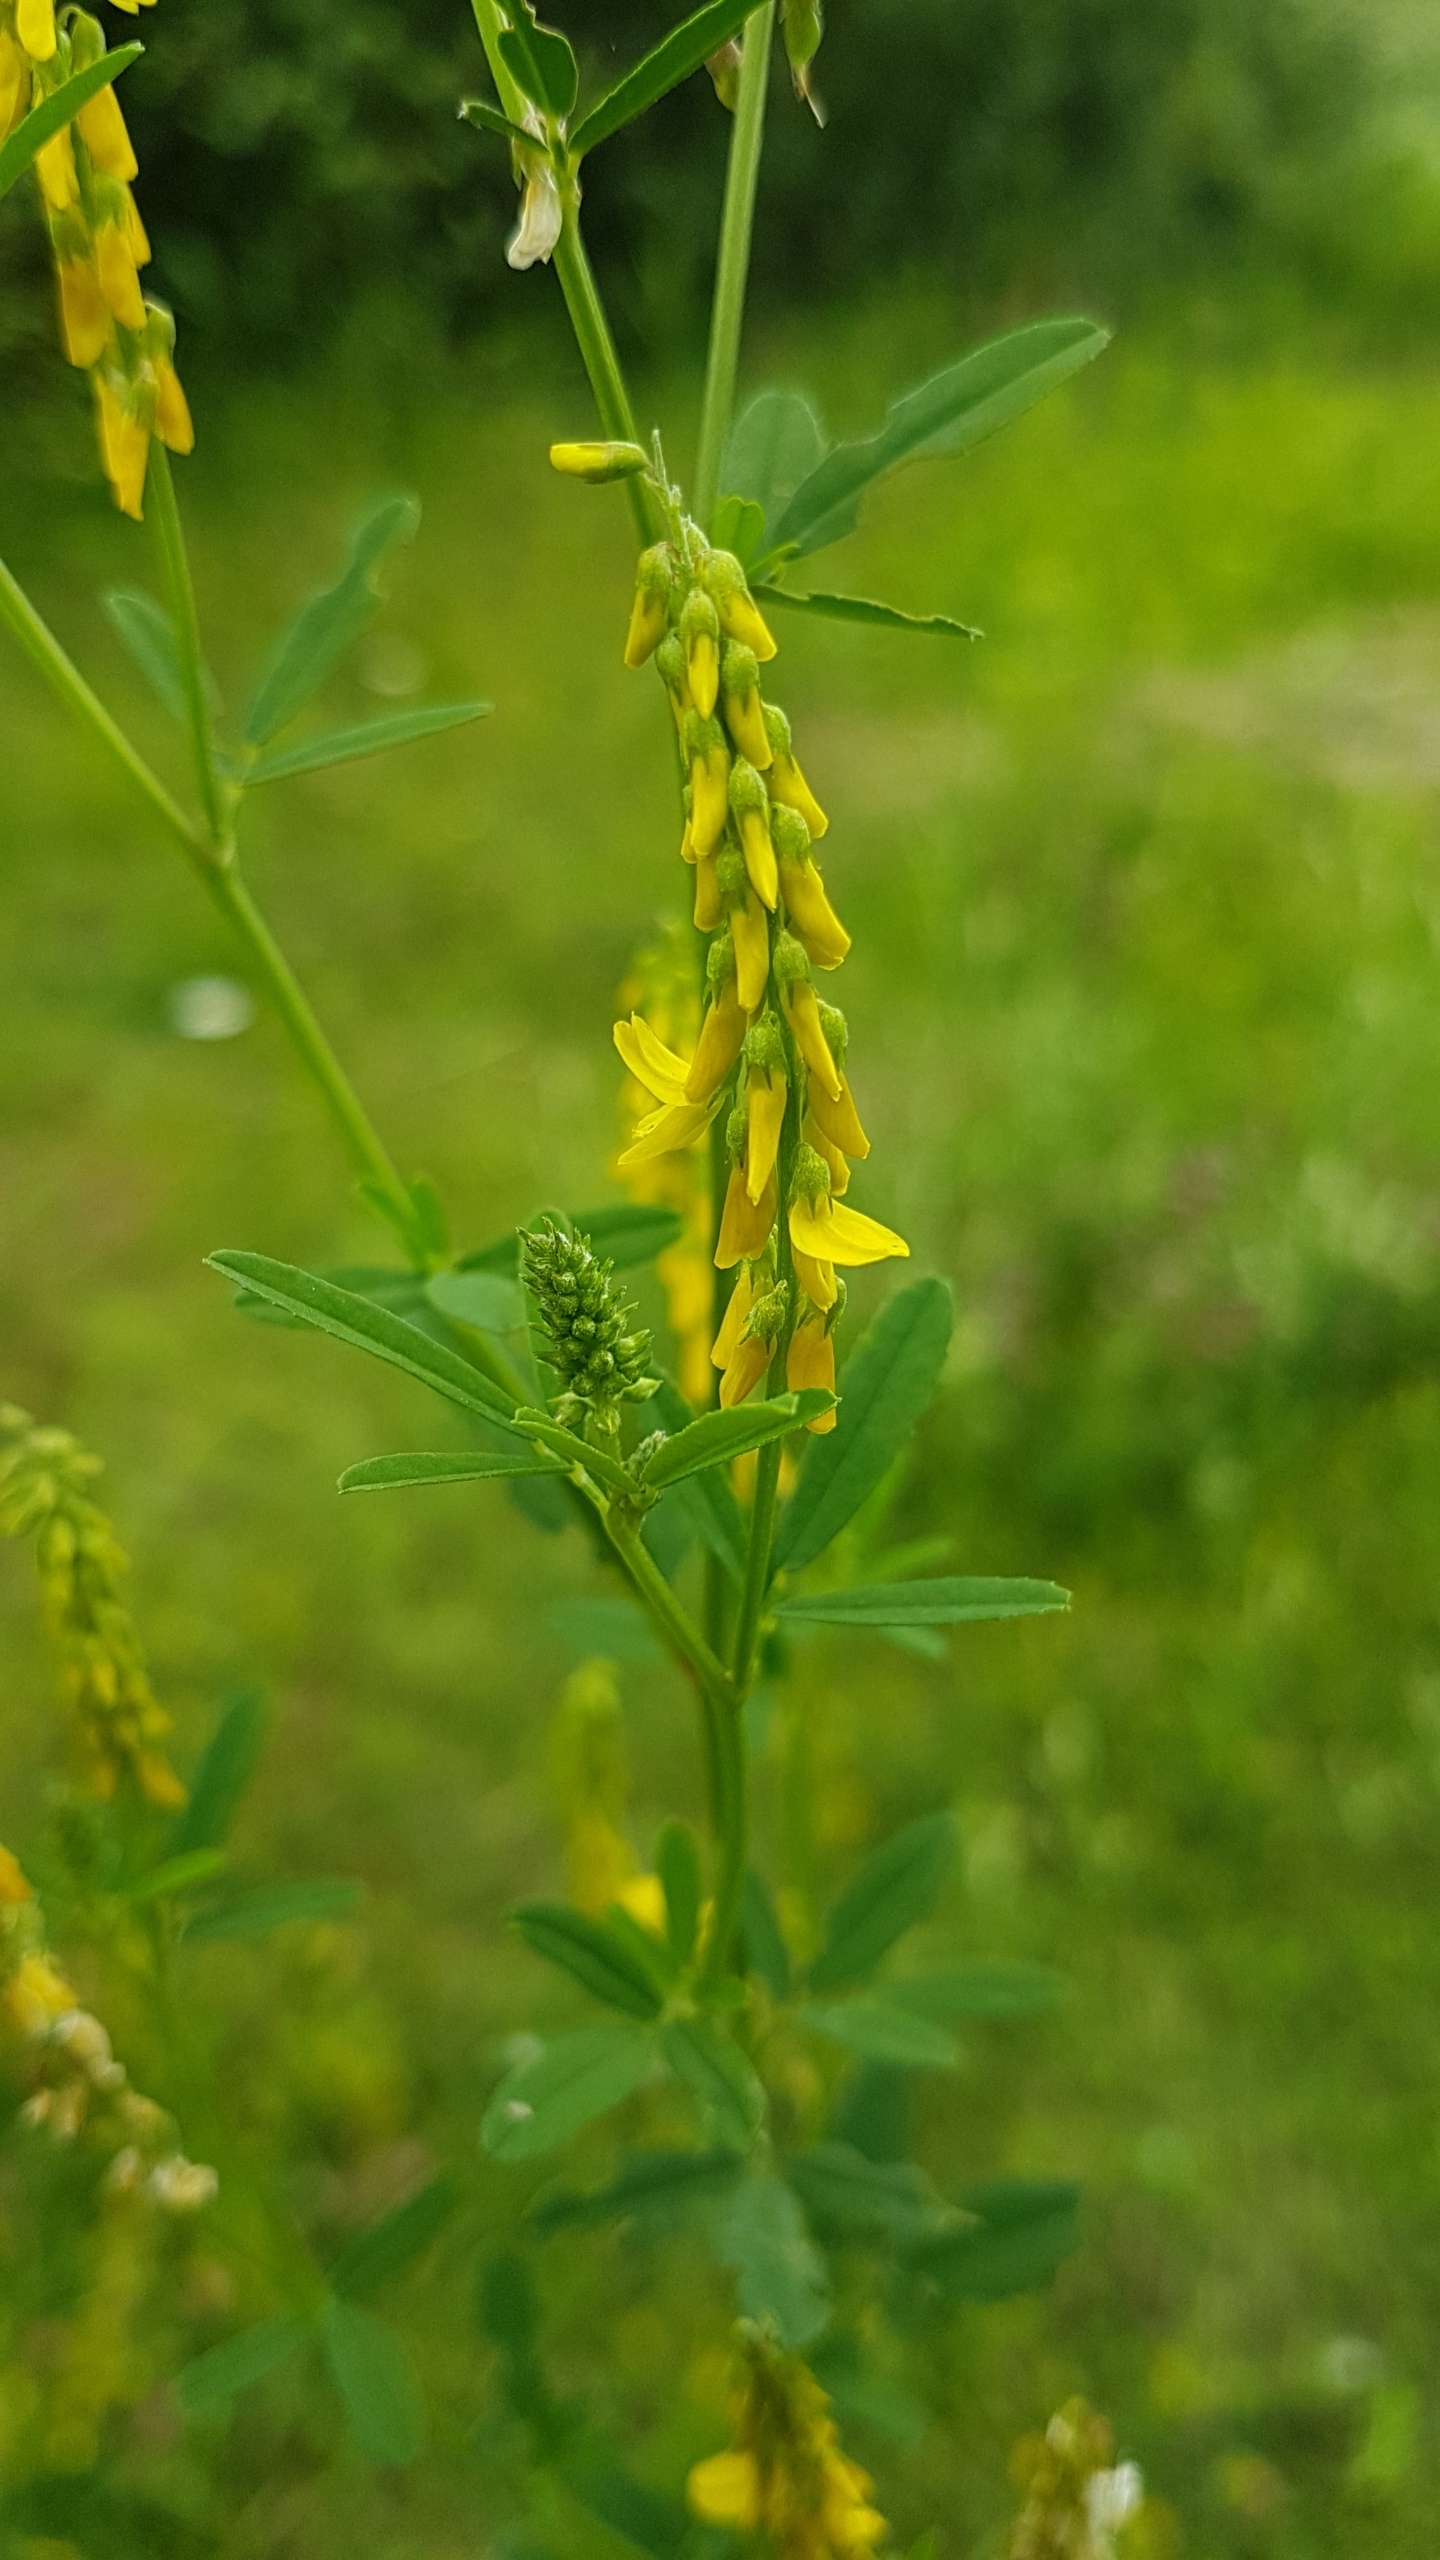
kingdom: Plantae
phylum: Tracheophyta
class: Magnoliopsida
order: Fabales
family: Fabaceae
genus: Melilotus
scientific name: Melilotus altissimus
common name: Høj stenkløver
